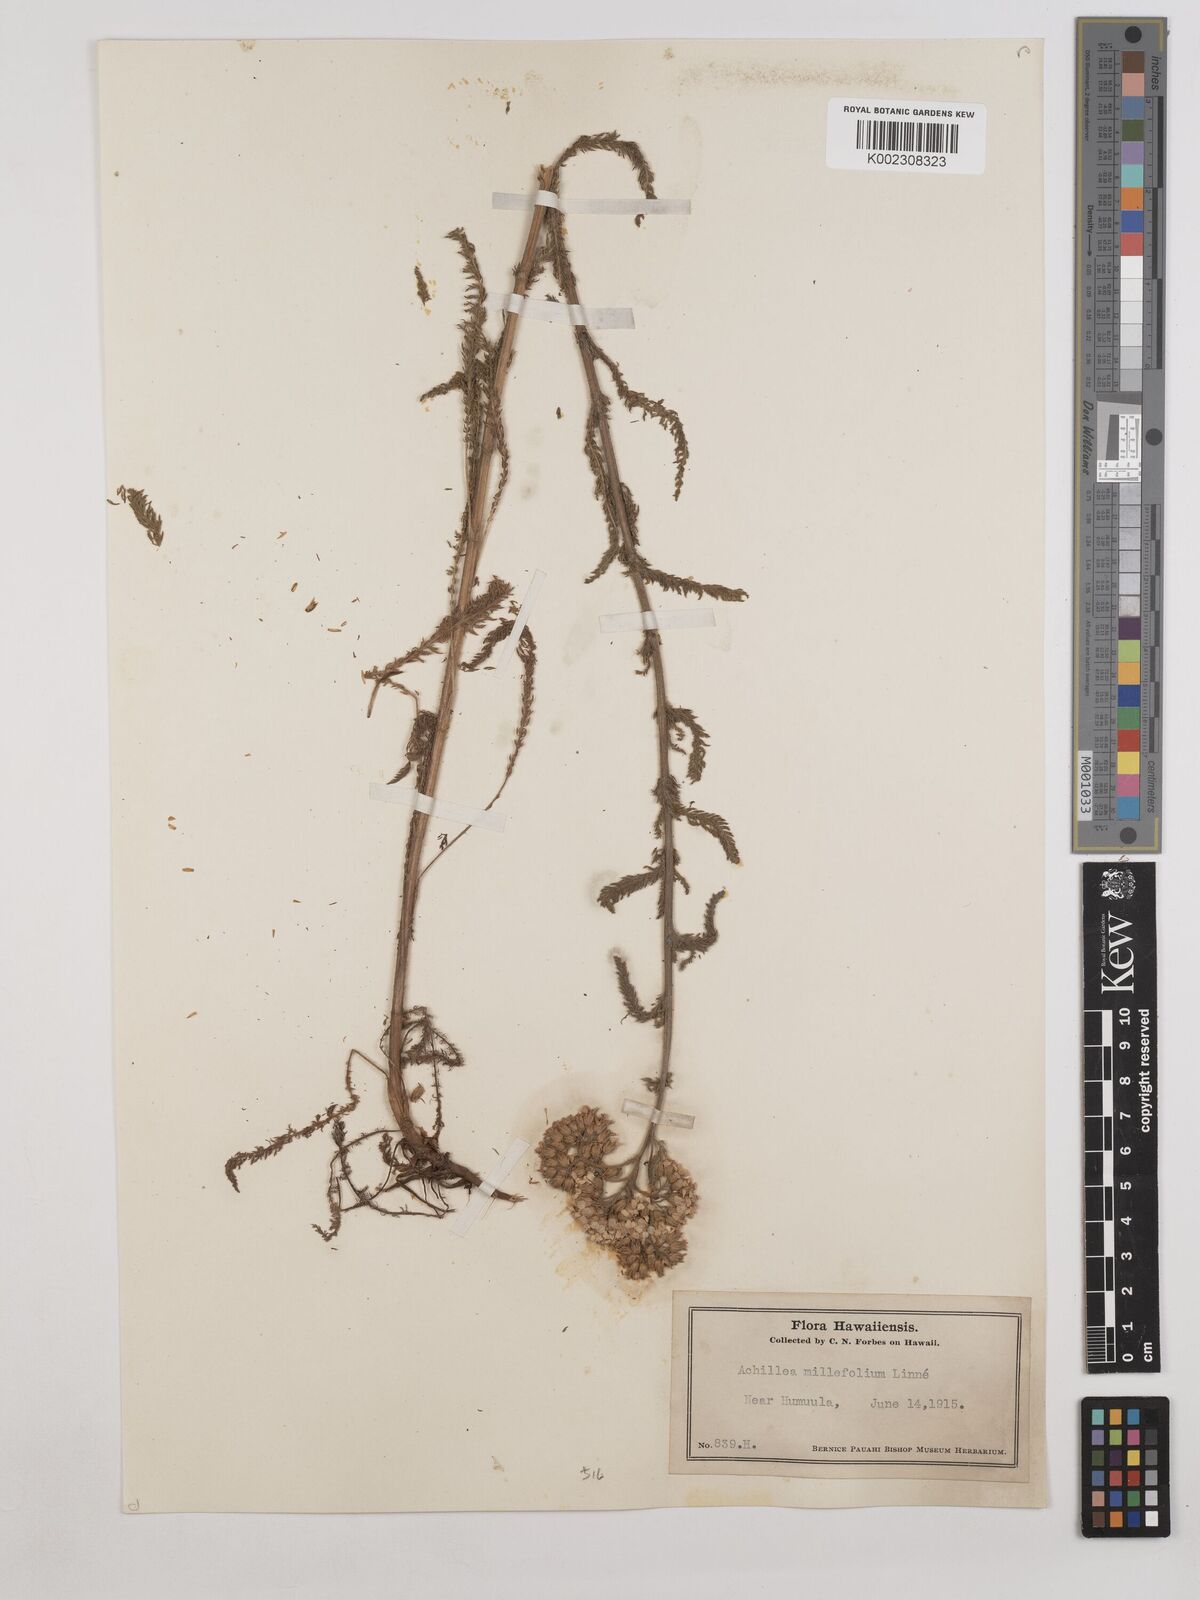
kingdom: Plantae
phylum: Tracheophyta
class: Magnoliopsida
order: Asterales
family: Asteraceae
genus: Achillea
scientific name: Achillea millefolium
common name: Yarrow
